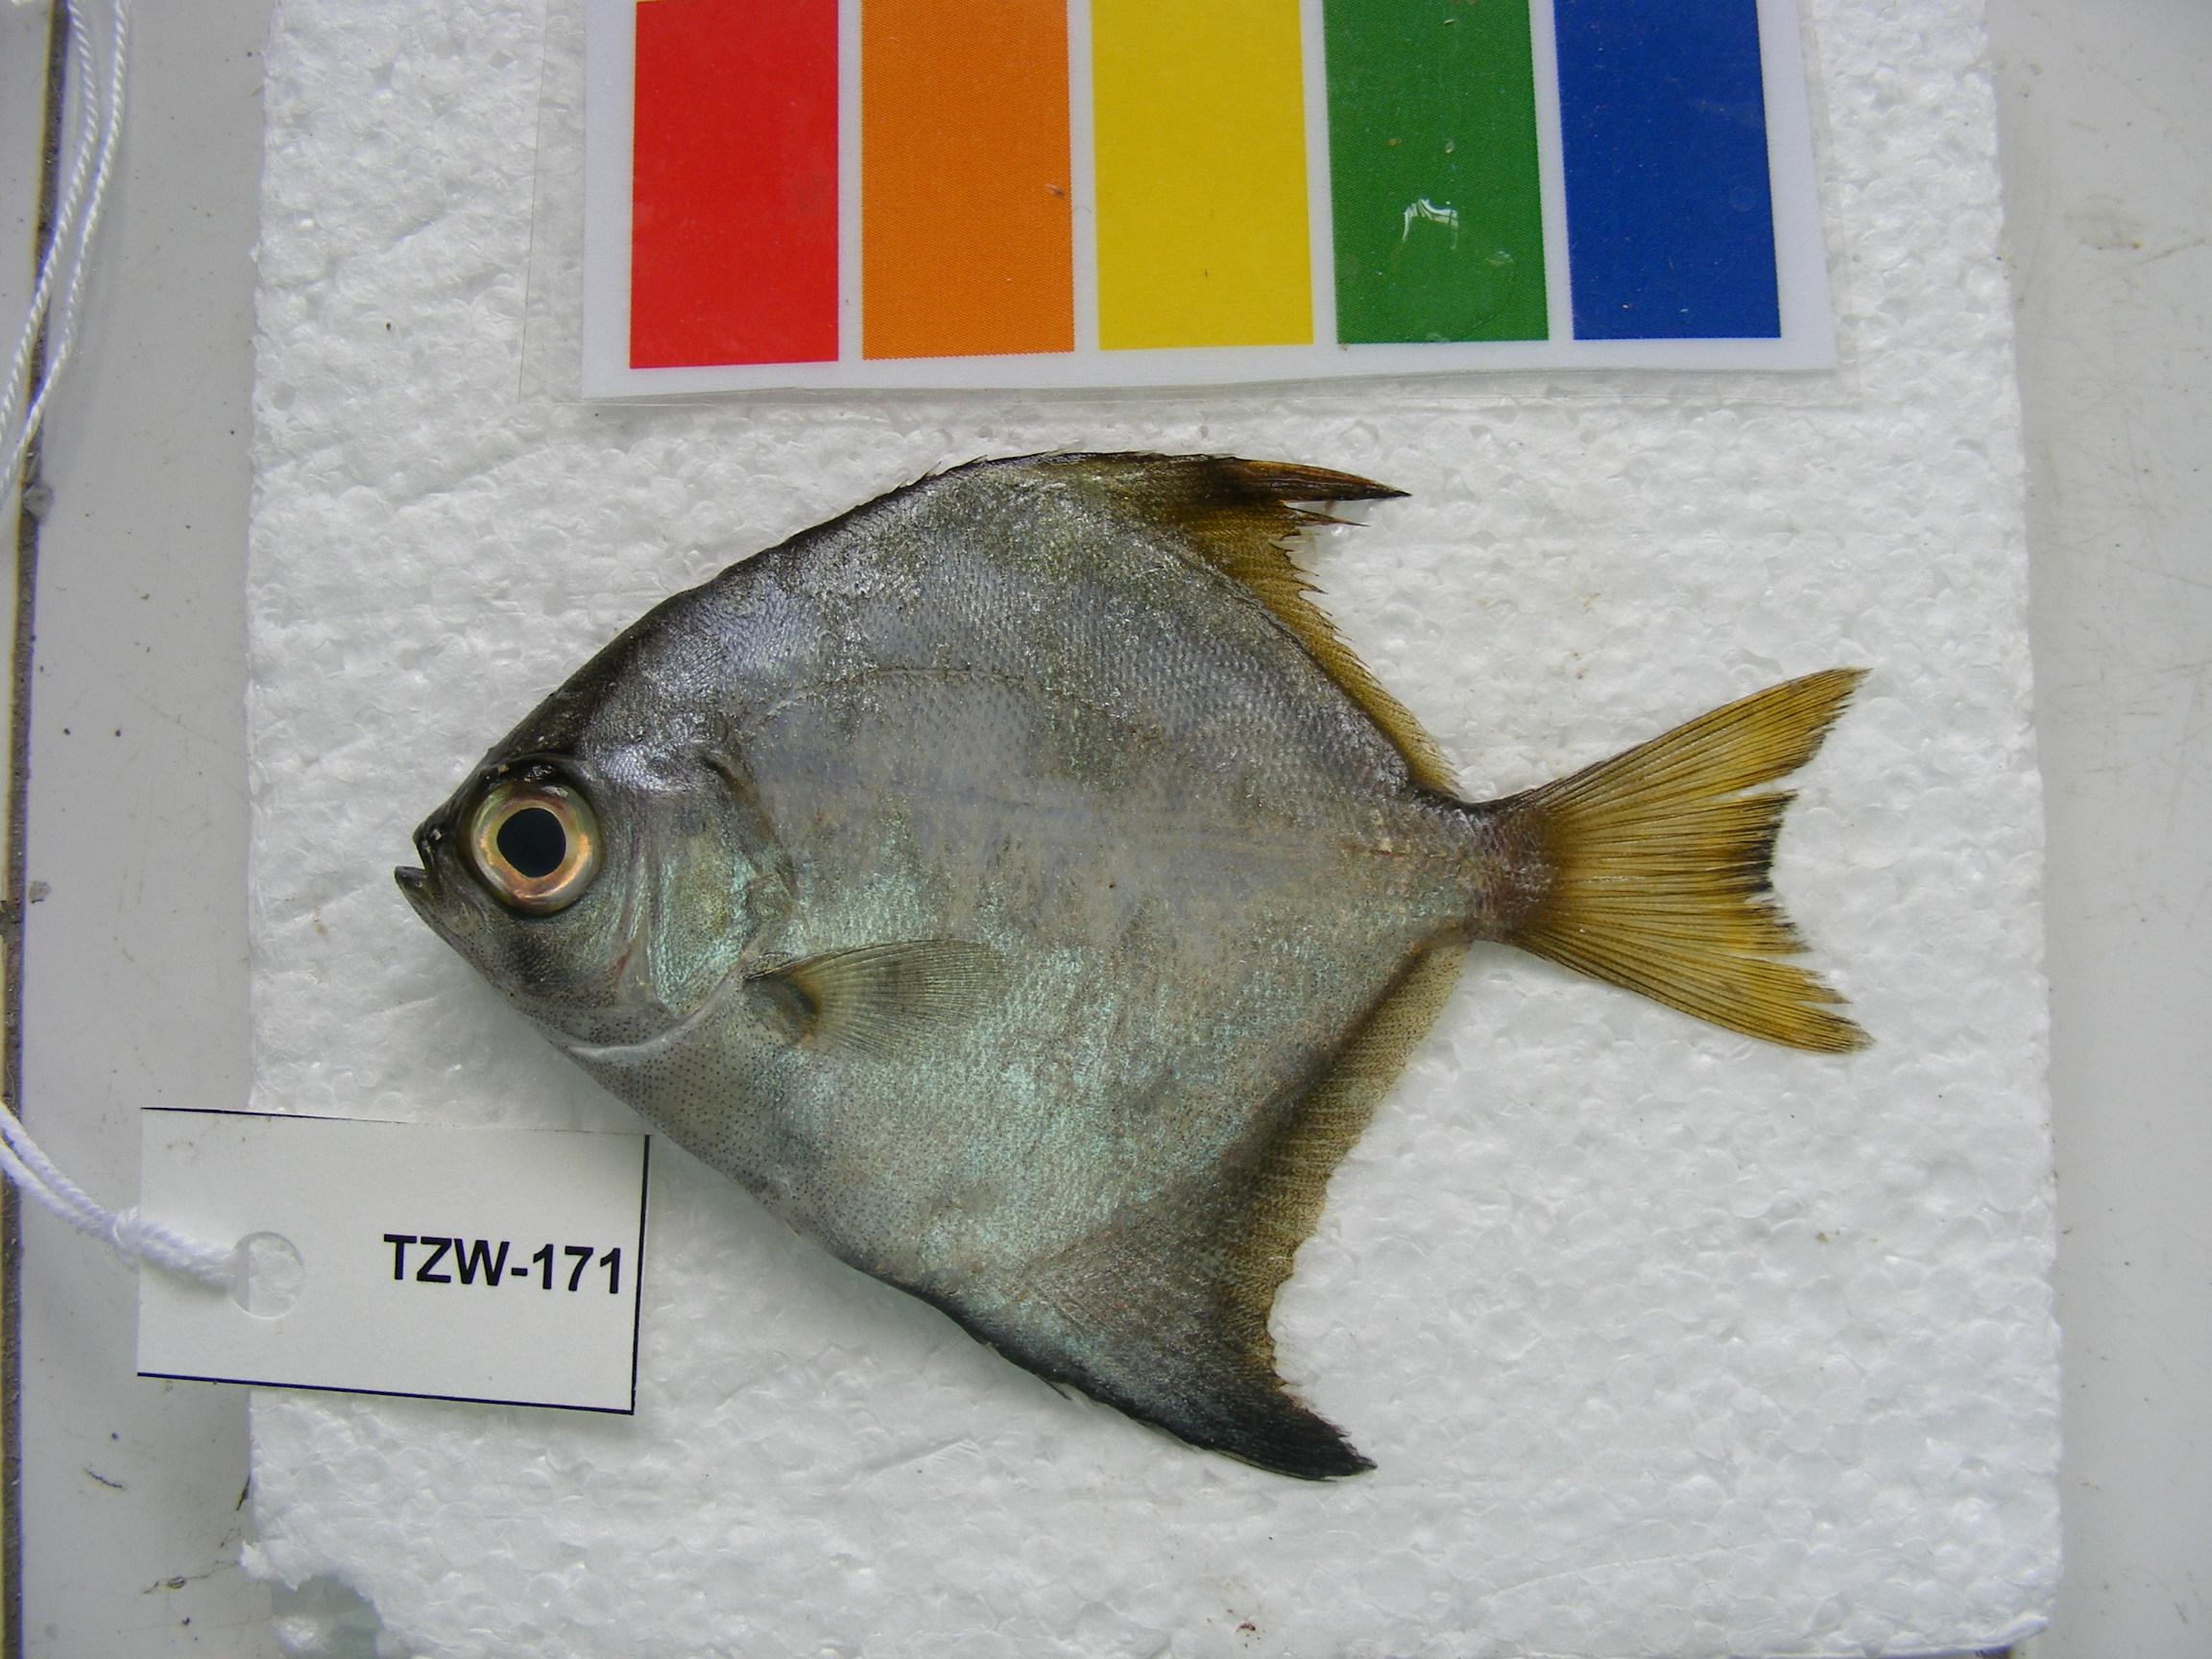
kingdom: Animalia
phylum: Chordata
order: Perciformes
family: Monodactylidae
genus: Monodactylus
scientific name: Monodactylus argenteus
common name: Silver moony
